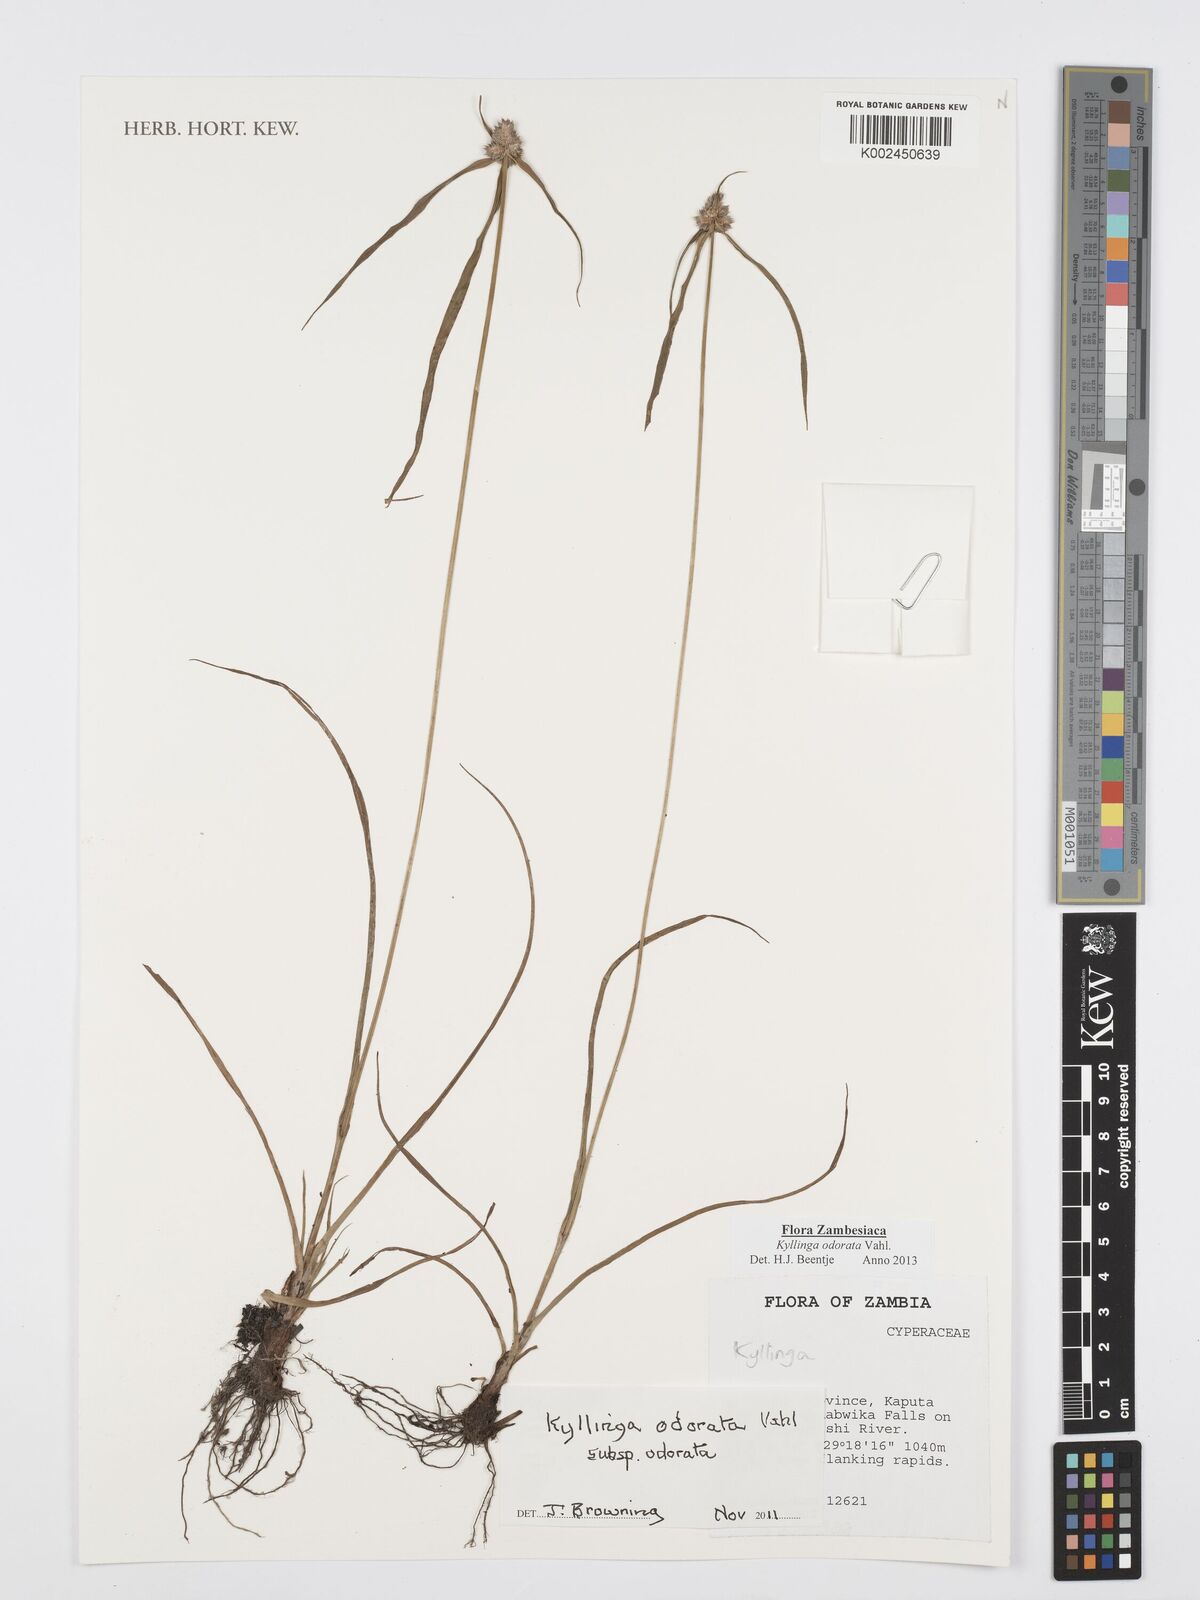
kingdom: Plantae
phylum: Tracheophyta
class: Liliopsida
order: Poales
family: Cyperaceae
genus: Cyperus
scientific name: Cyperus
